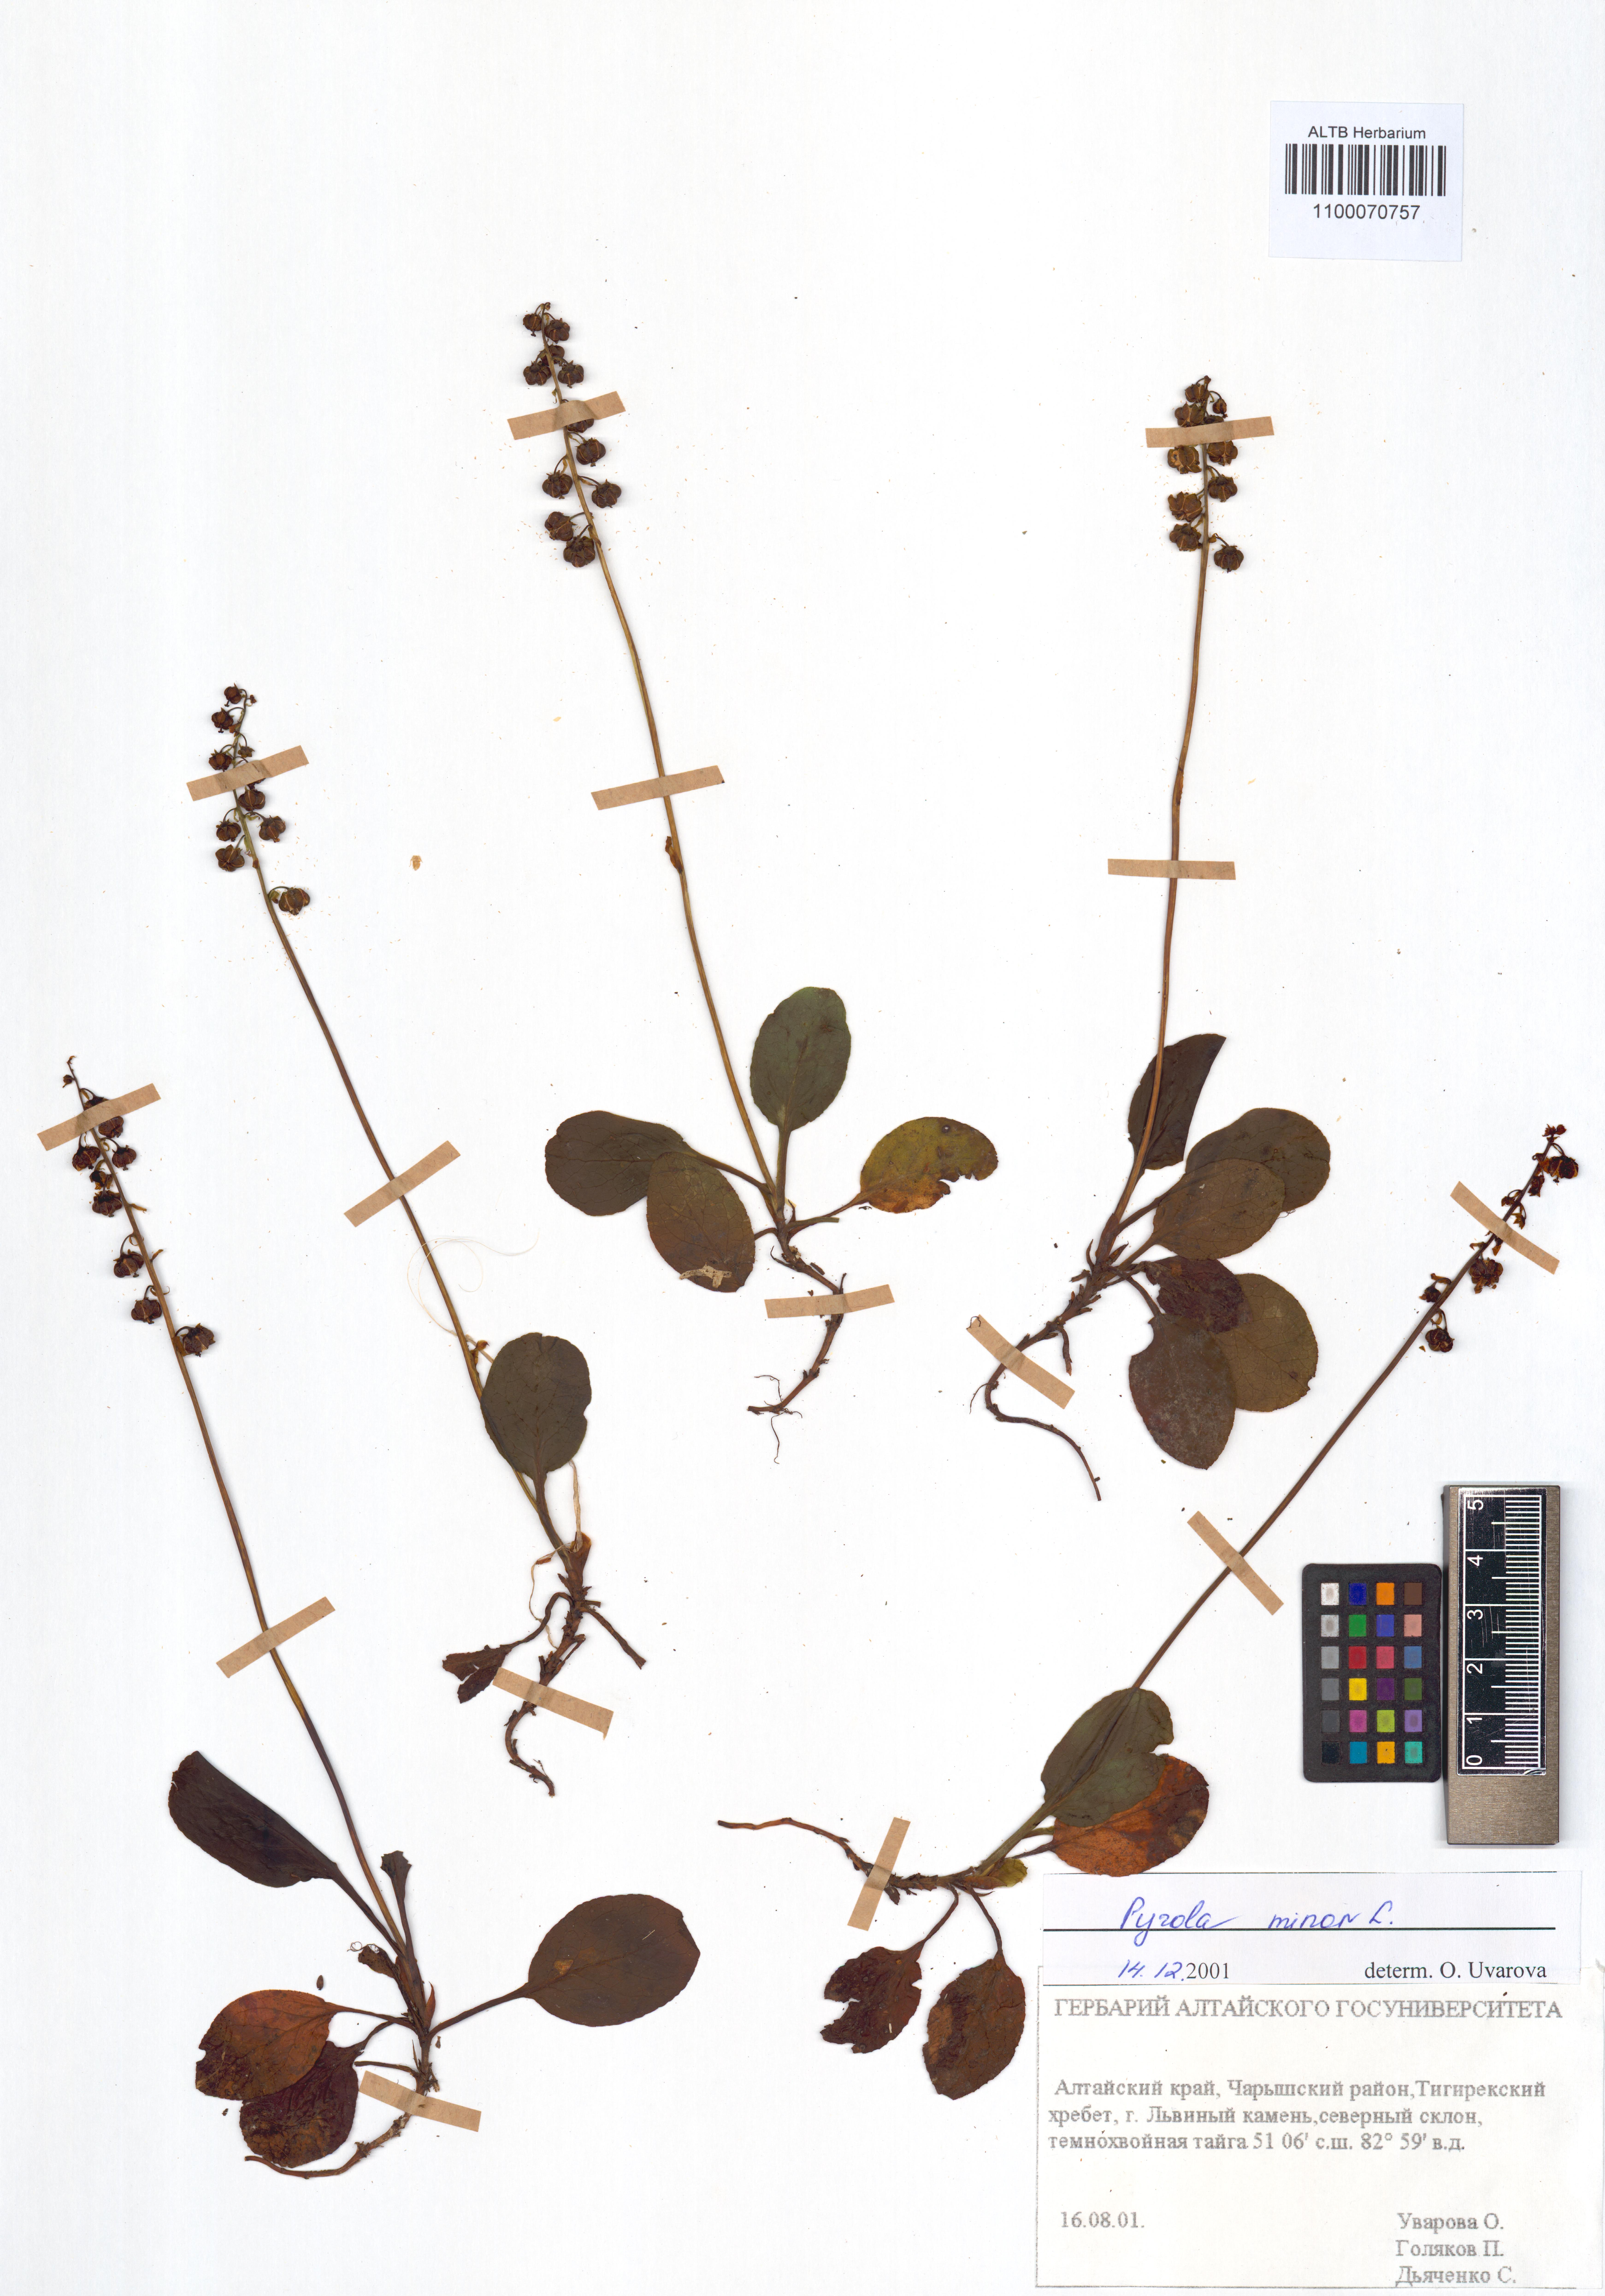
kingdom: Plantae
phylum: Tracheophyta
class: Magnoliopsida
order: Ericales
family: Ericaceae
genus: Pyrola
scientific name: Pyrola minor
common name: Common wintergreen
